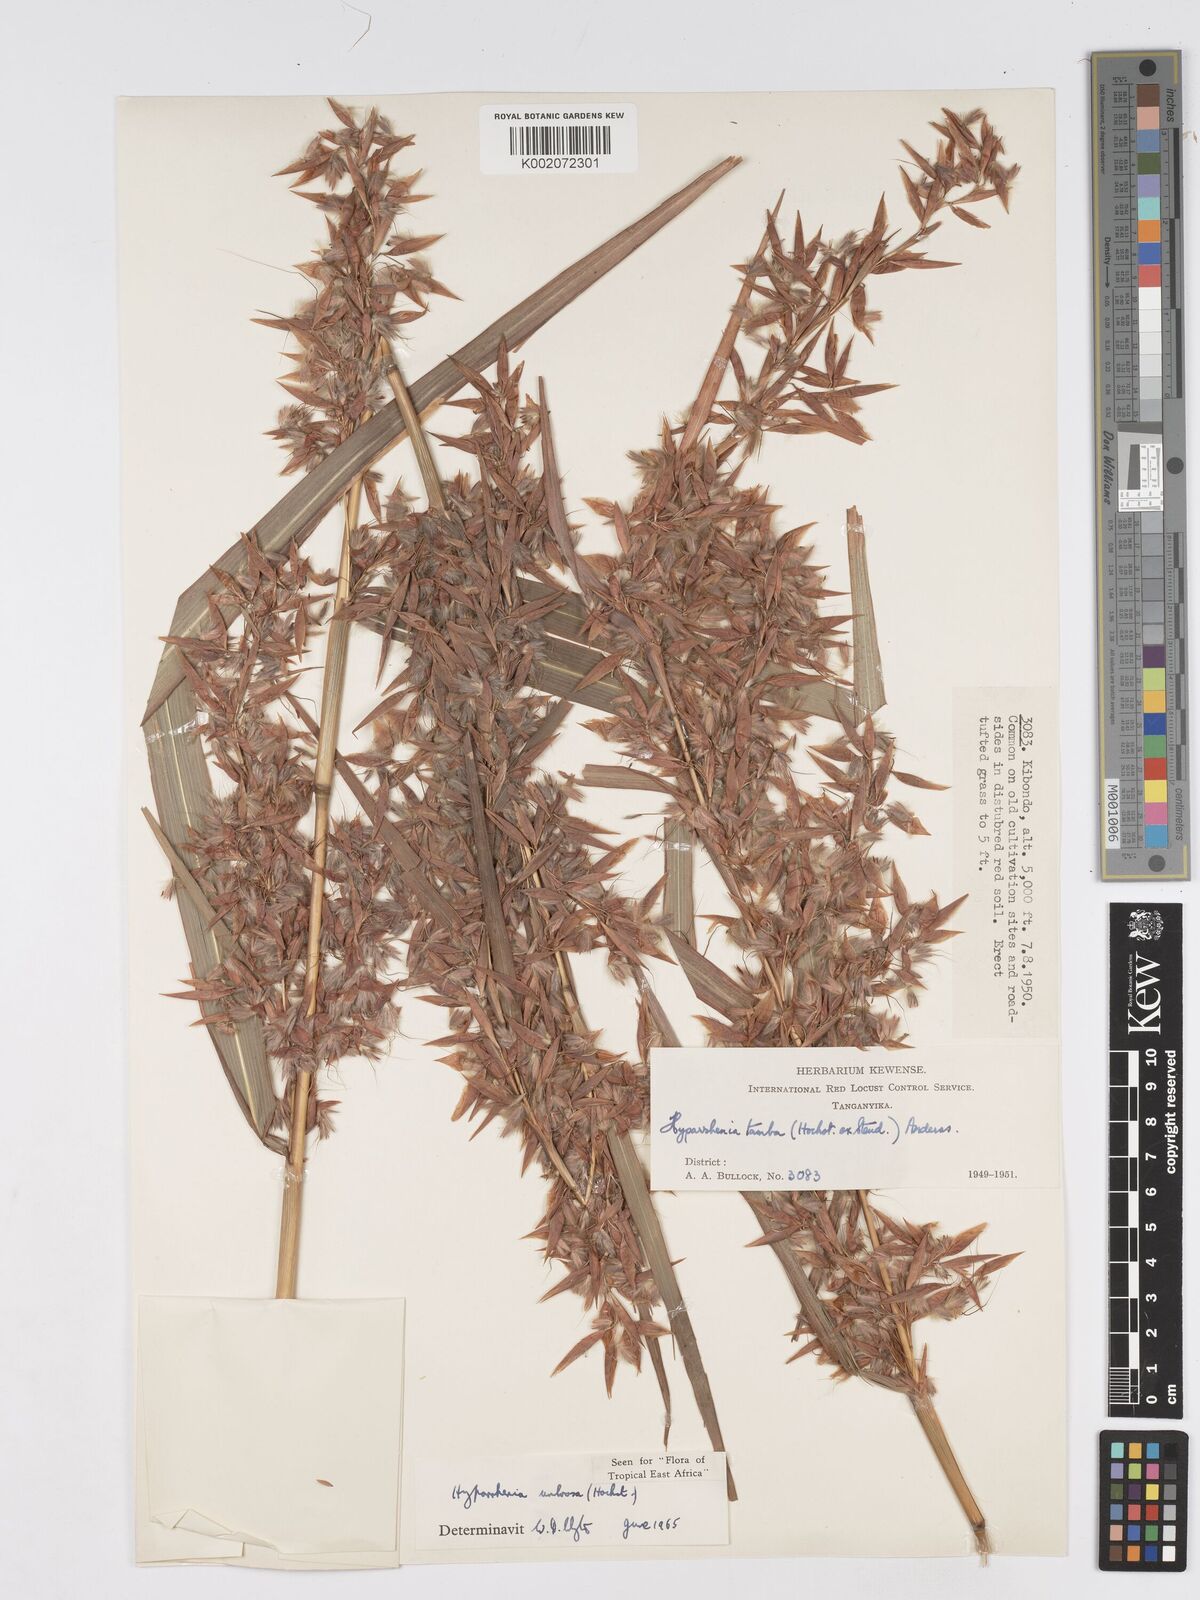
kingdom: Plantae
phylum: Tracheophyta
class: Liliopsida
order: Poales
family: Poaceae
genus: Hyparrhenia
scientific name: Hyparrhenia umbrosa
